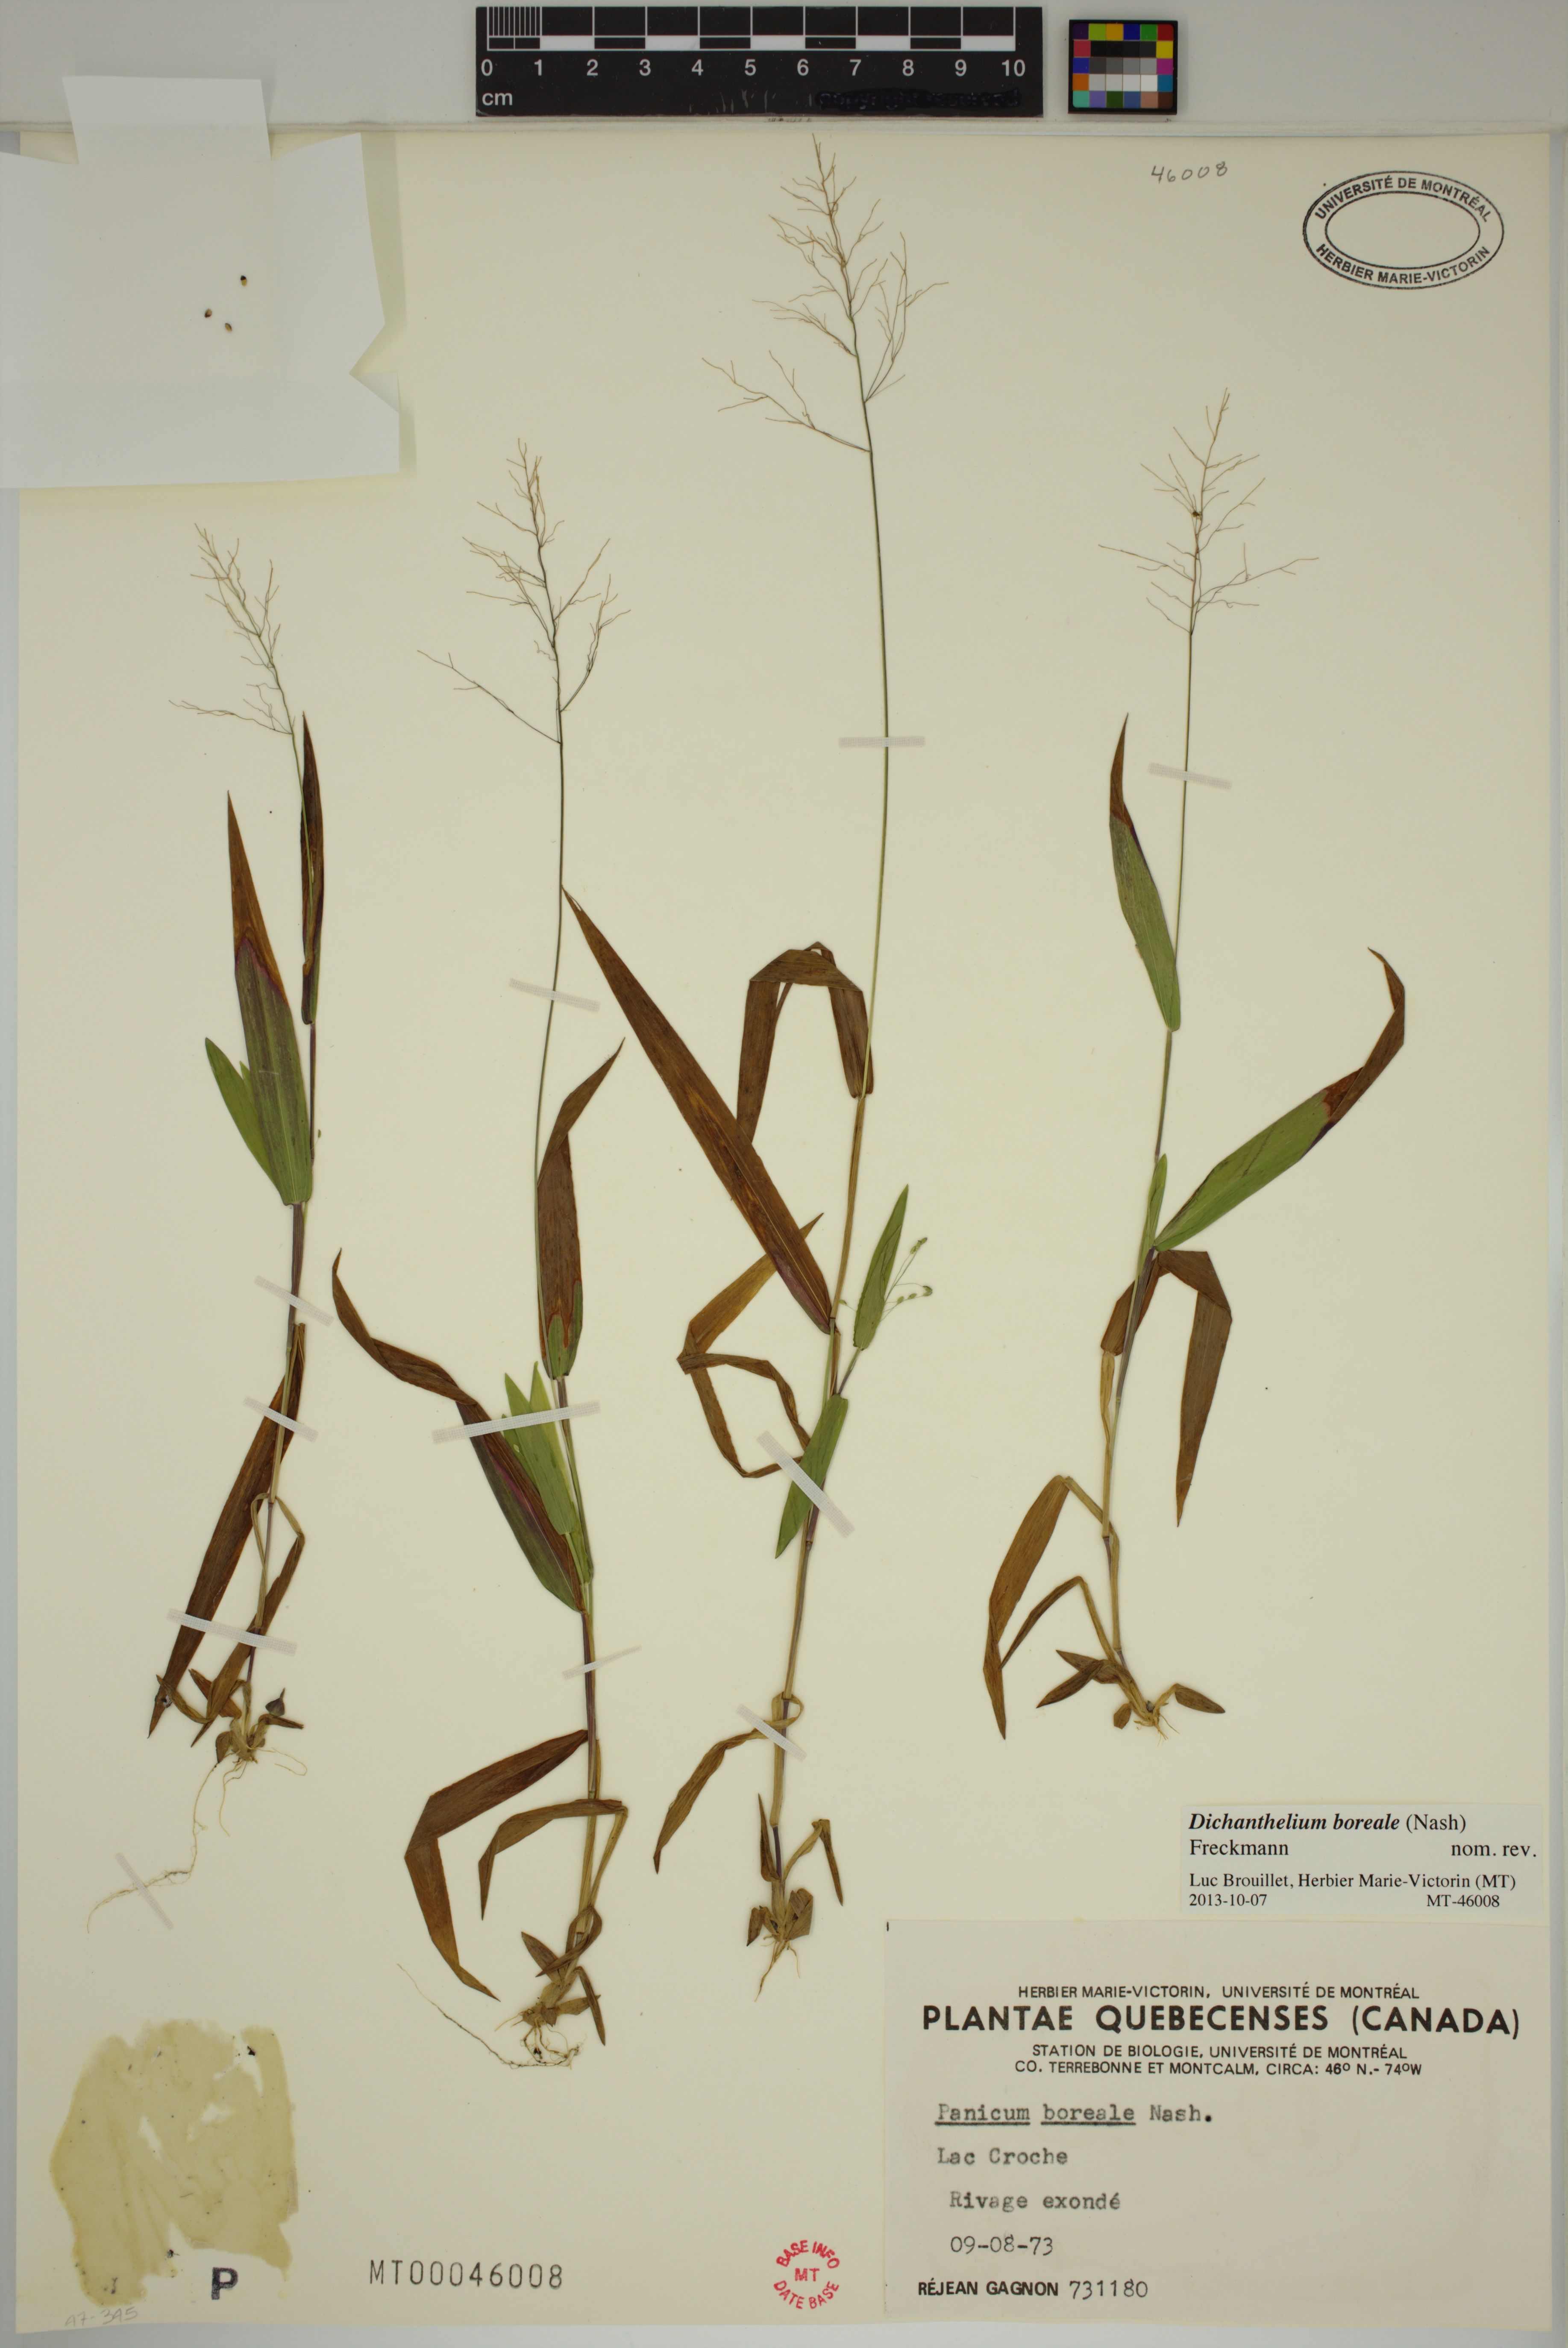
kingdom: Plantae
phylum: Tracheophyta
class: Liliopsida
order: Poales
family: Poaceae
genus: Dichanthelium
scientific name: Dichanthelium boreale
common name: Northern panicgrass
